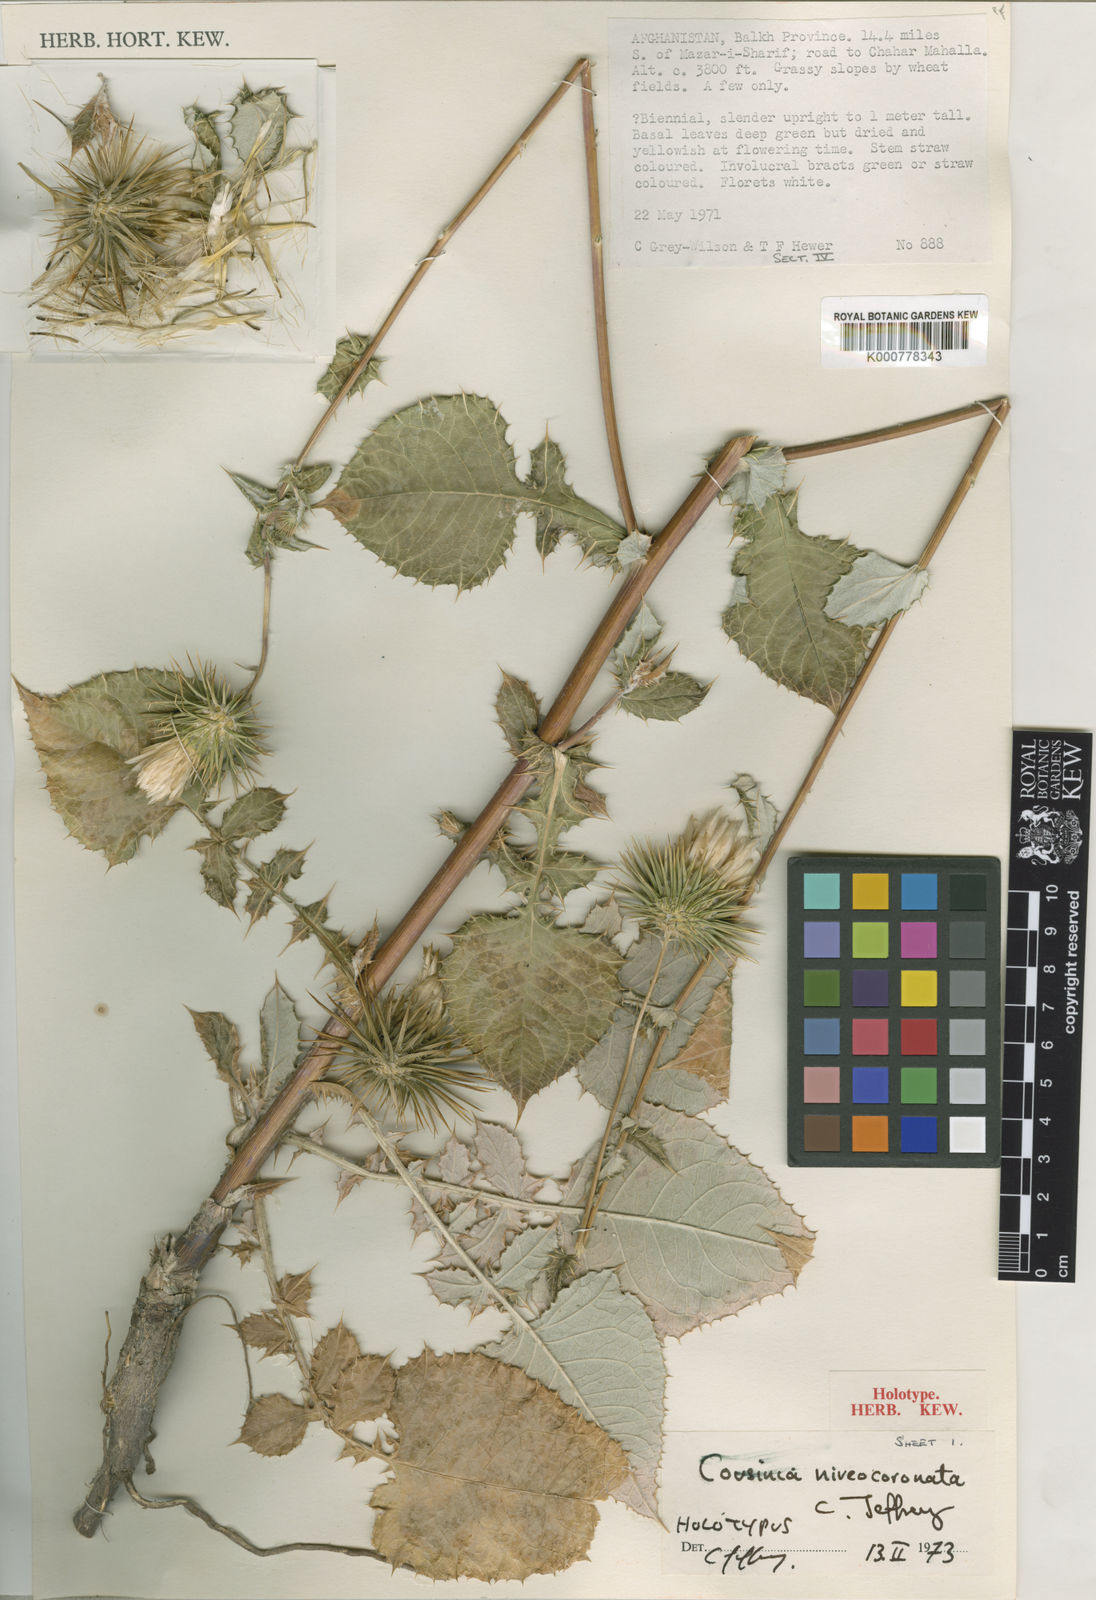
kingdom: Plantae
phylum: Tracheophyta
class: Magnoliopsida
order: Asterales
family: Asteraceae
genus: Cousinia
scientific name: Cousinia niveocoronata
